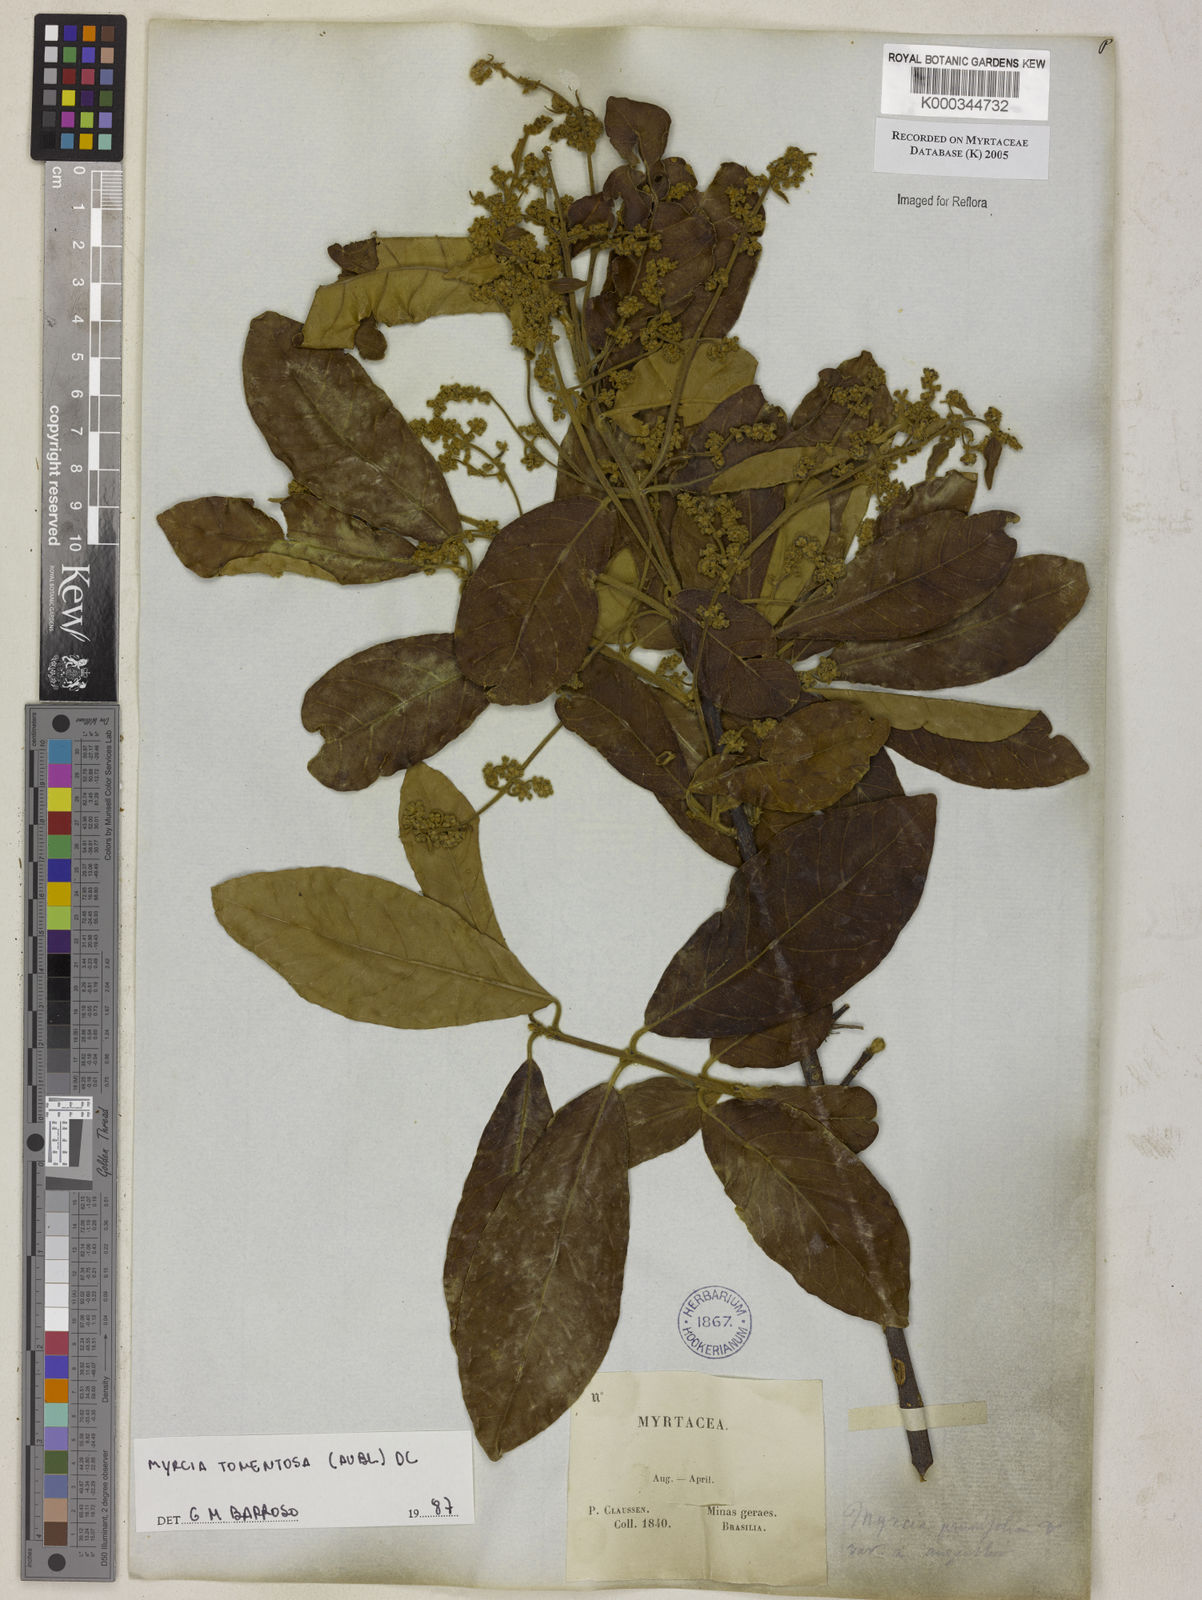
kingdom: Plantae
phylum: Tracheophyta
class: Magnoliopsida
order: Myrtales
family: Myrtaceae
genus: Myrcia
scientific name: Myrcia tomentosa
